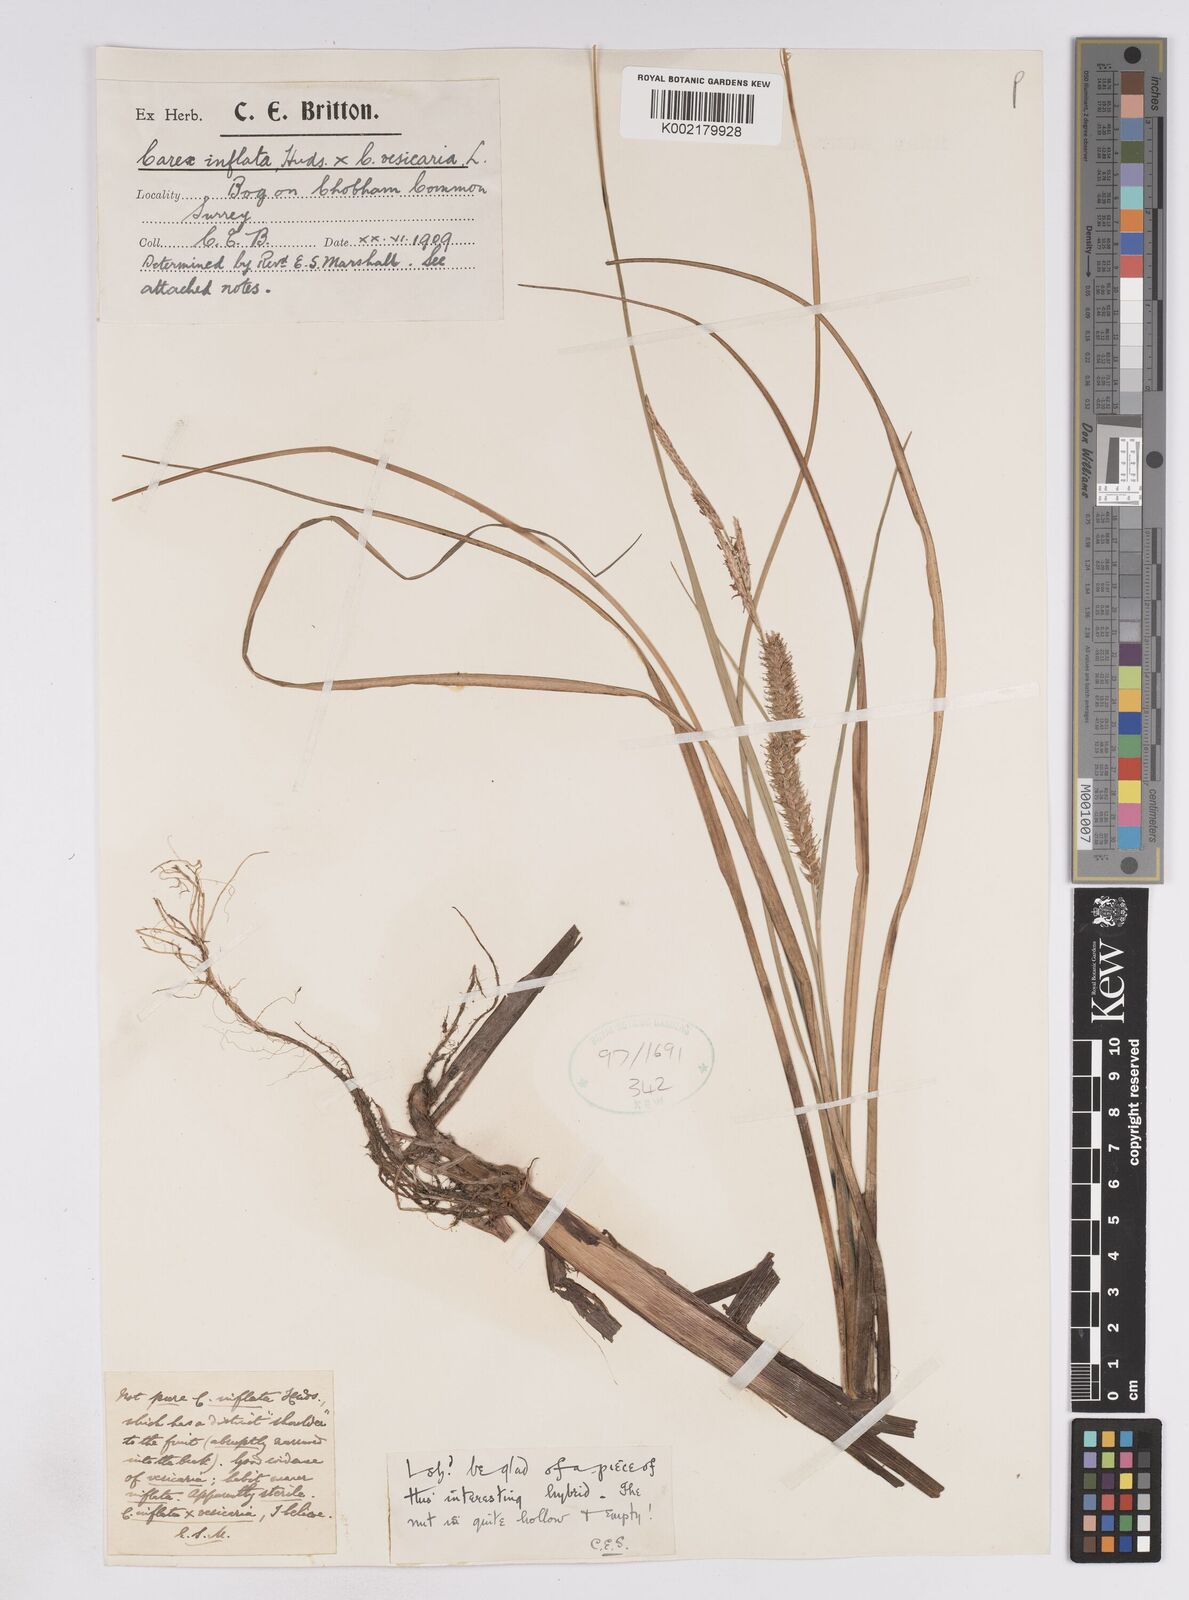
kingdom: Plantae
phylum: Tracheophyta
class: Liliopsida
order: Poales
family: Cyperaceae
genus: Carex
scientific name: Carex rostrata
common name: Bottle sedge
